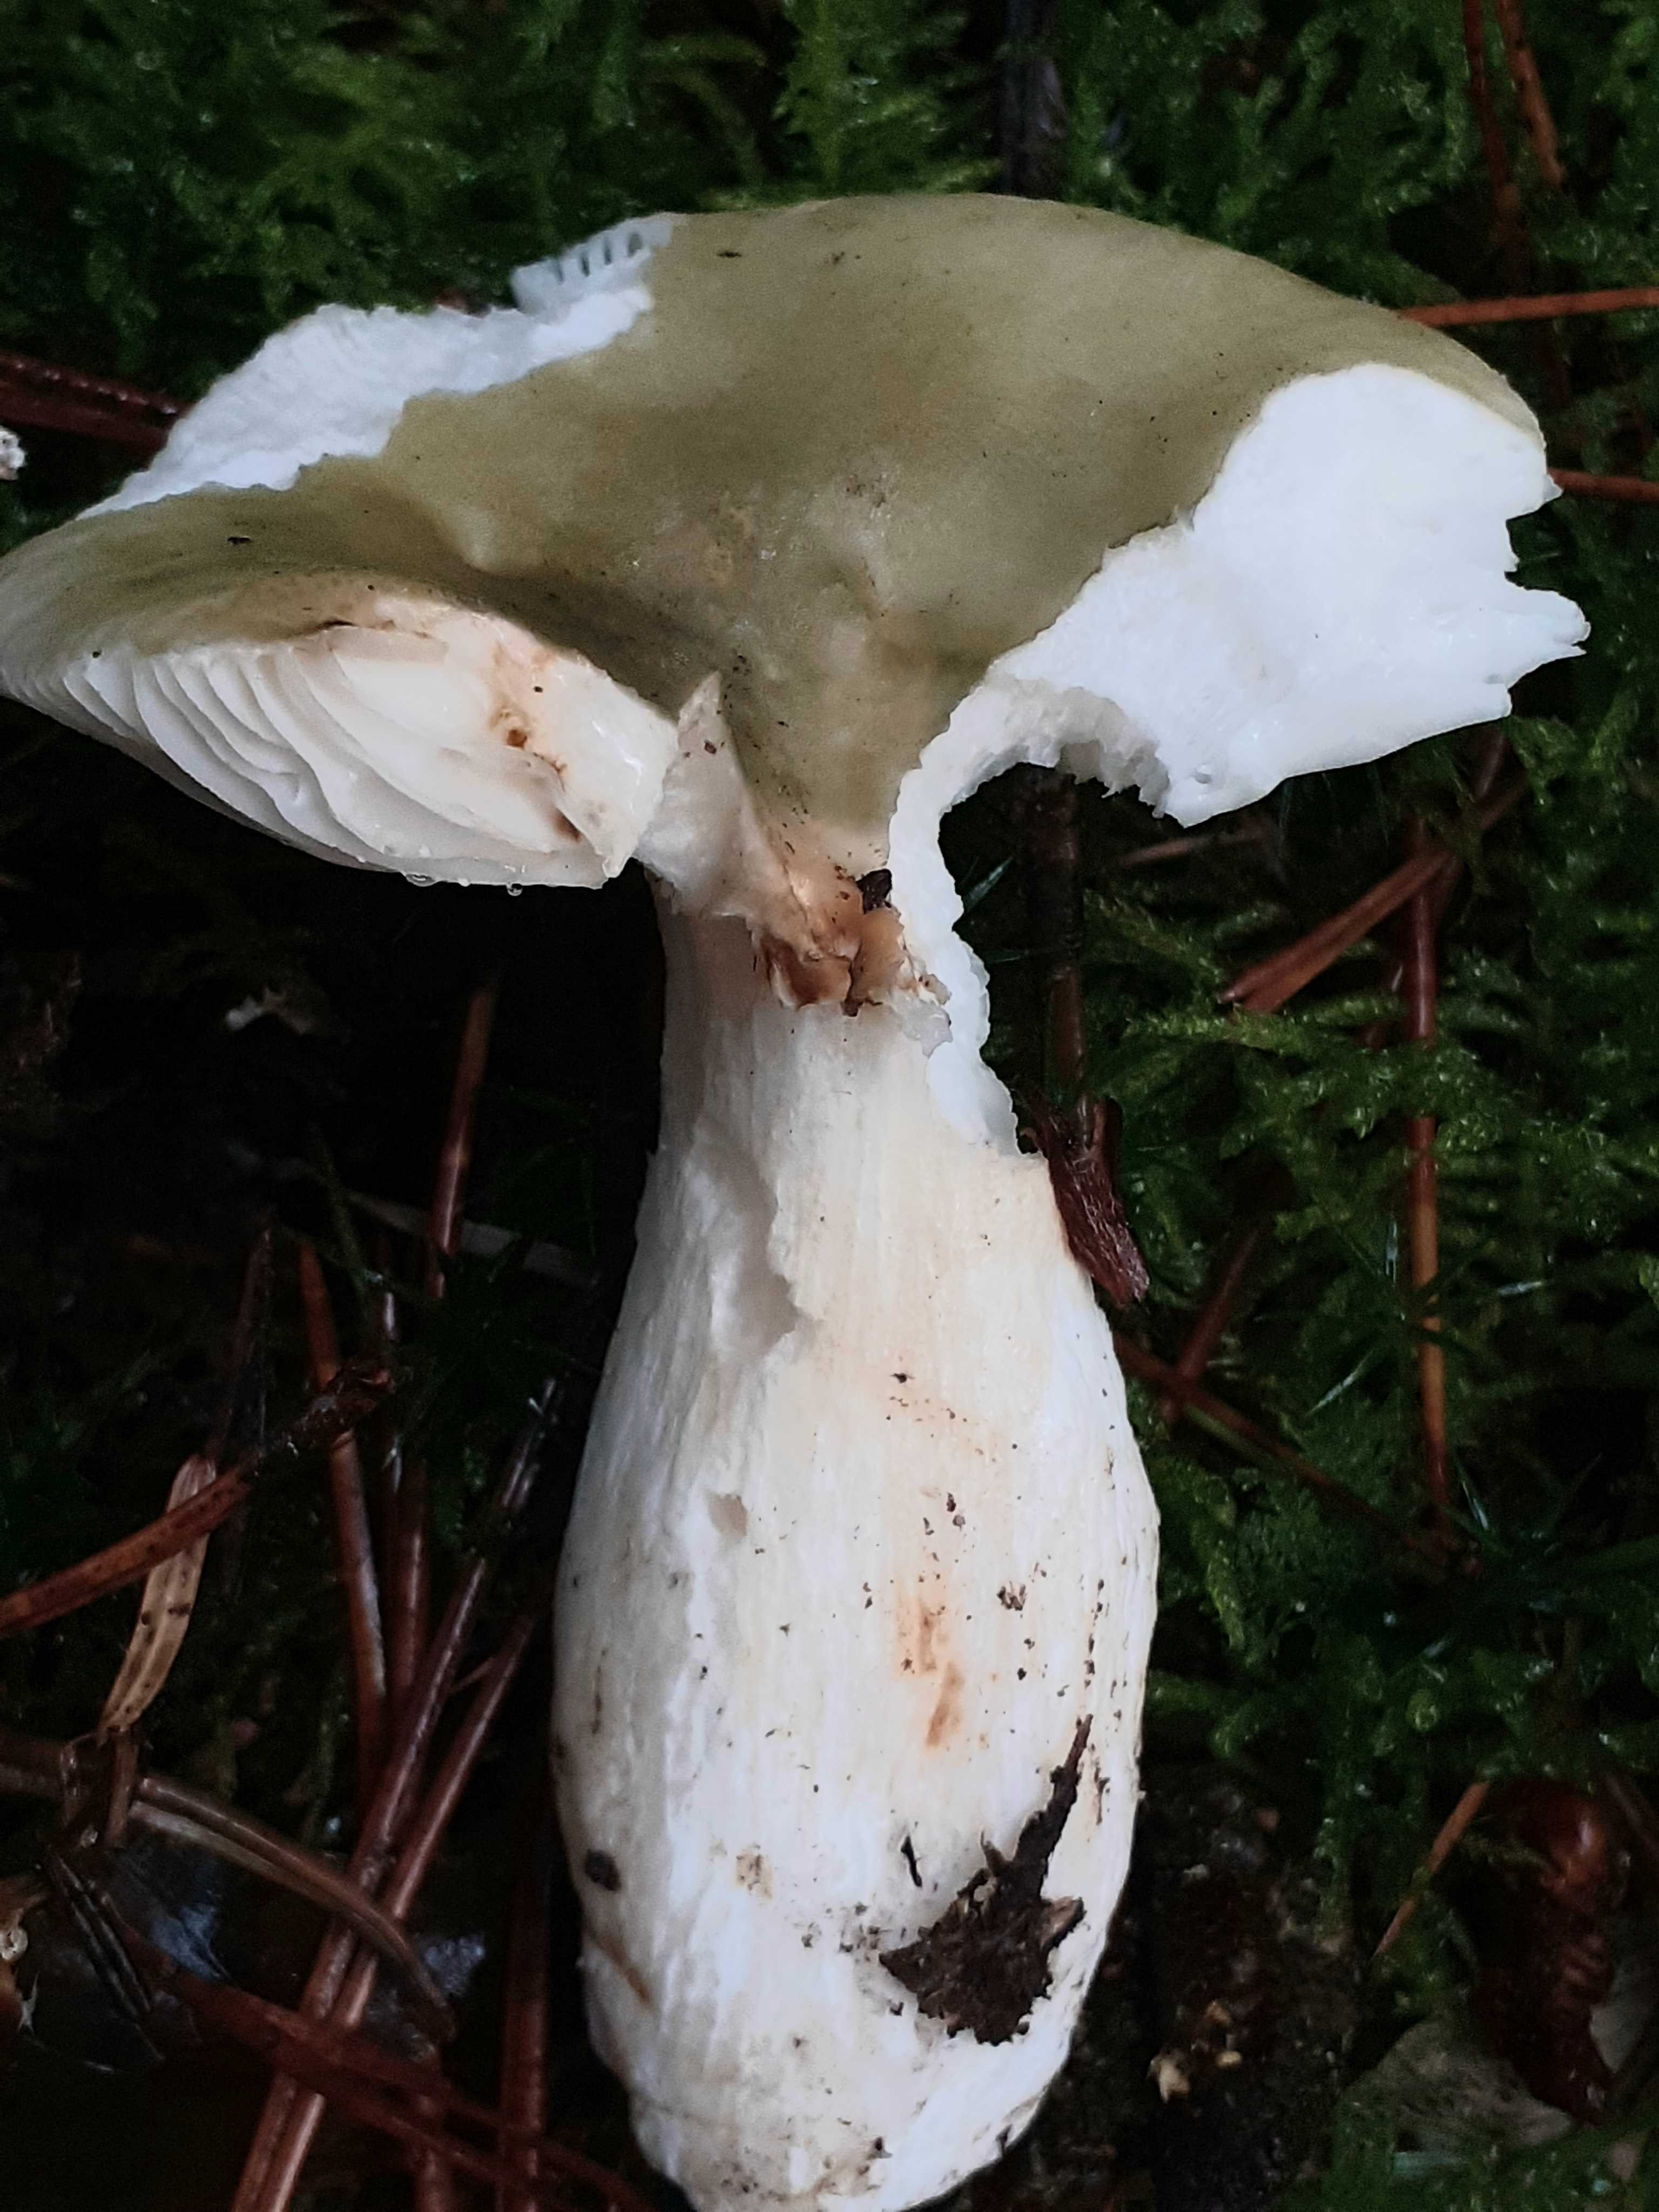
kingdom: Fungi
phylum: Basidiomycota
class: Agaricomycetes
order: Russulales
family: Russulaceae
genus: Russula
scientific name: Russula aeruginea
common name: græsgrøn skørhat
